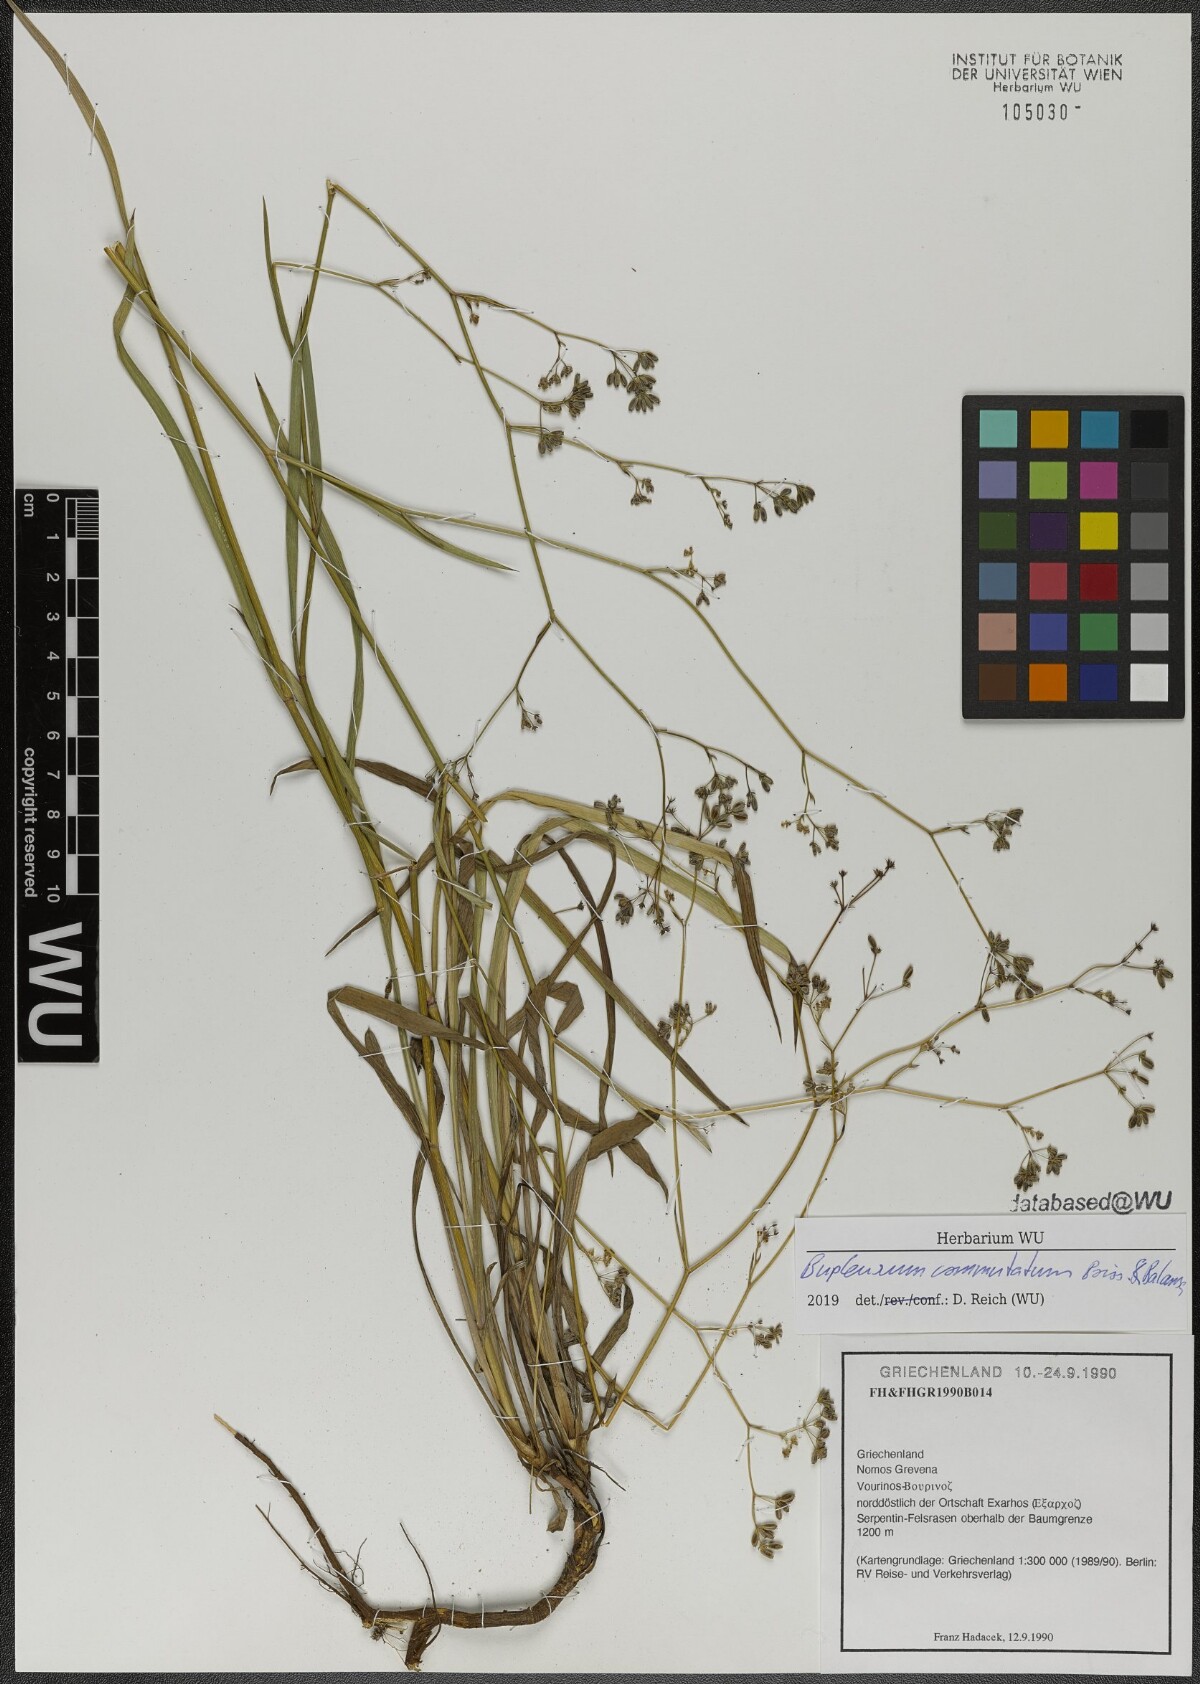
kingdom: Plantae
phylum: Tracheophyta
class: Magnoliopsida
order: Apiales
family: Apiaceae
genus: Bupleurum
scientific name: Bupleurum commutatum
